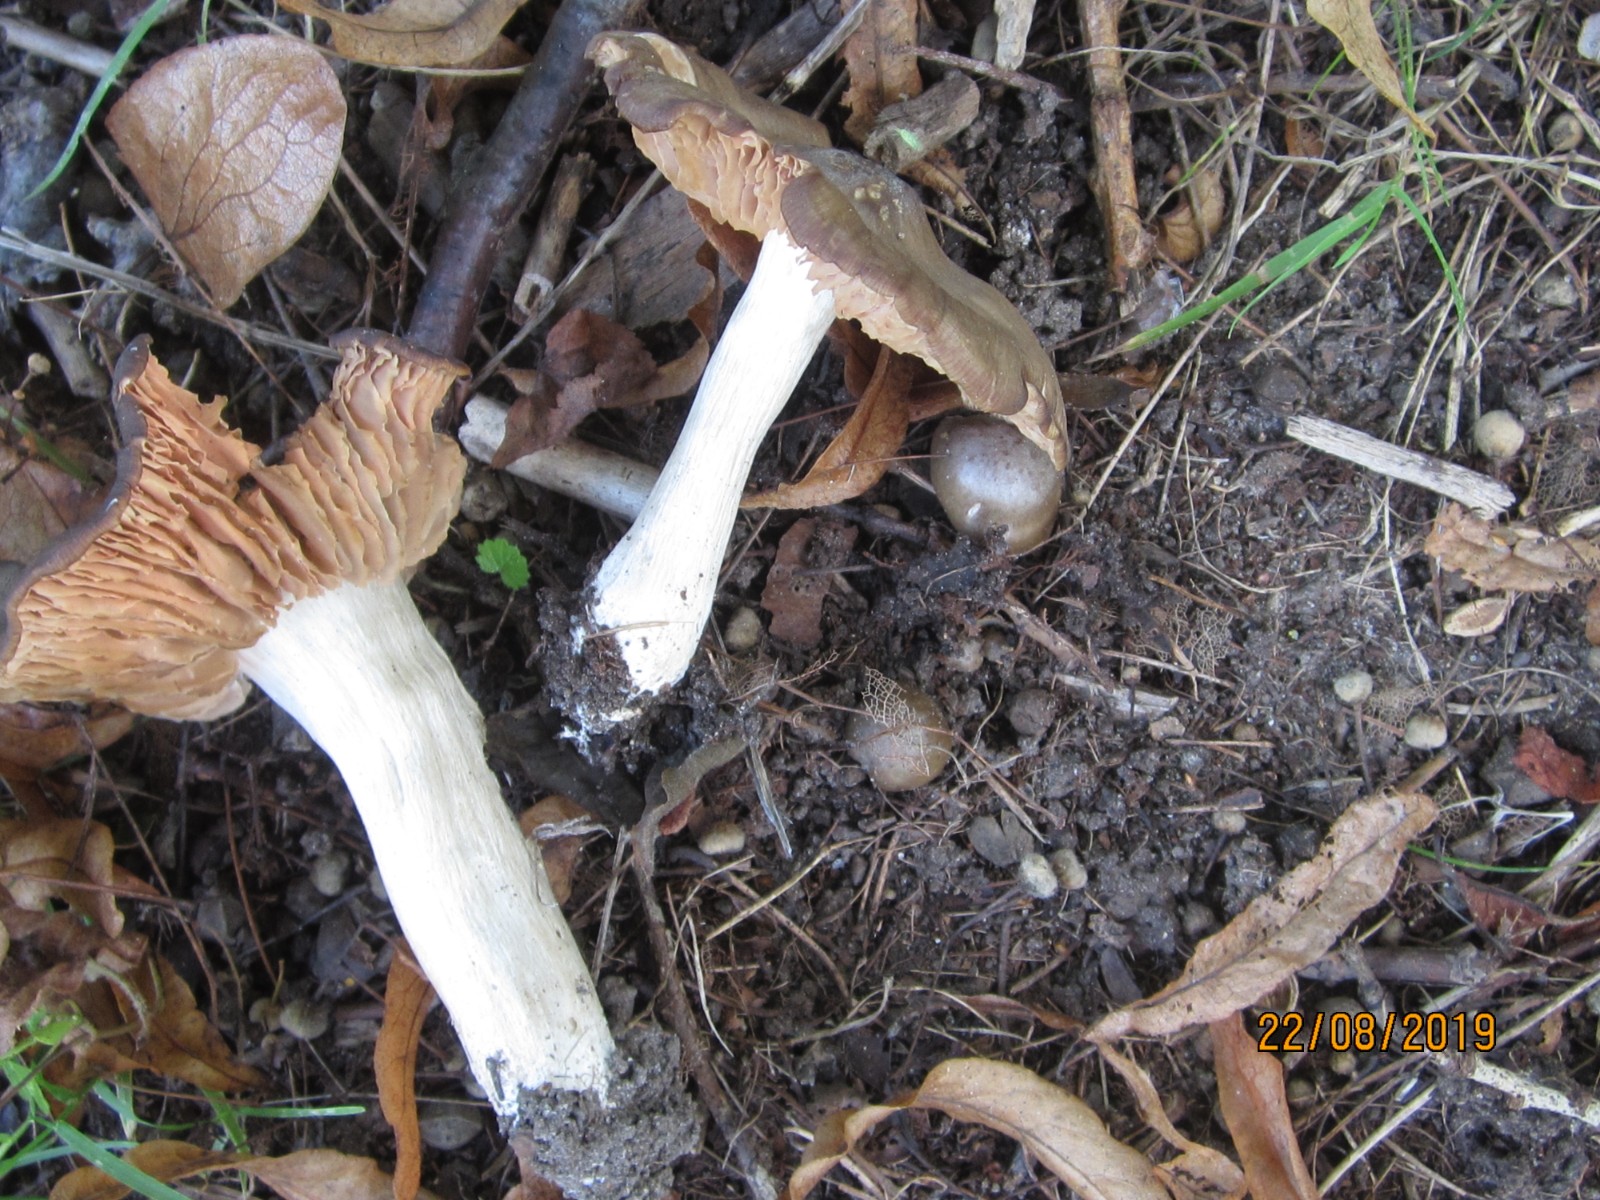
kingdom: Fungi
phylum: Basidiomycota
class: Agaricomycetes
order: Agaricales
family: Entolomataceae
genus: Entoloma
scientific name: Entoloma lividoalbum
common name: lysstokket rødblad
